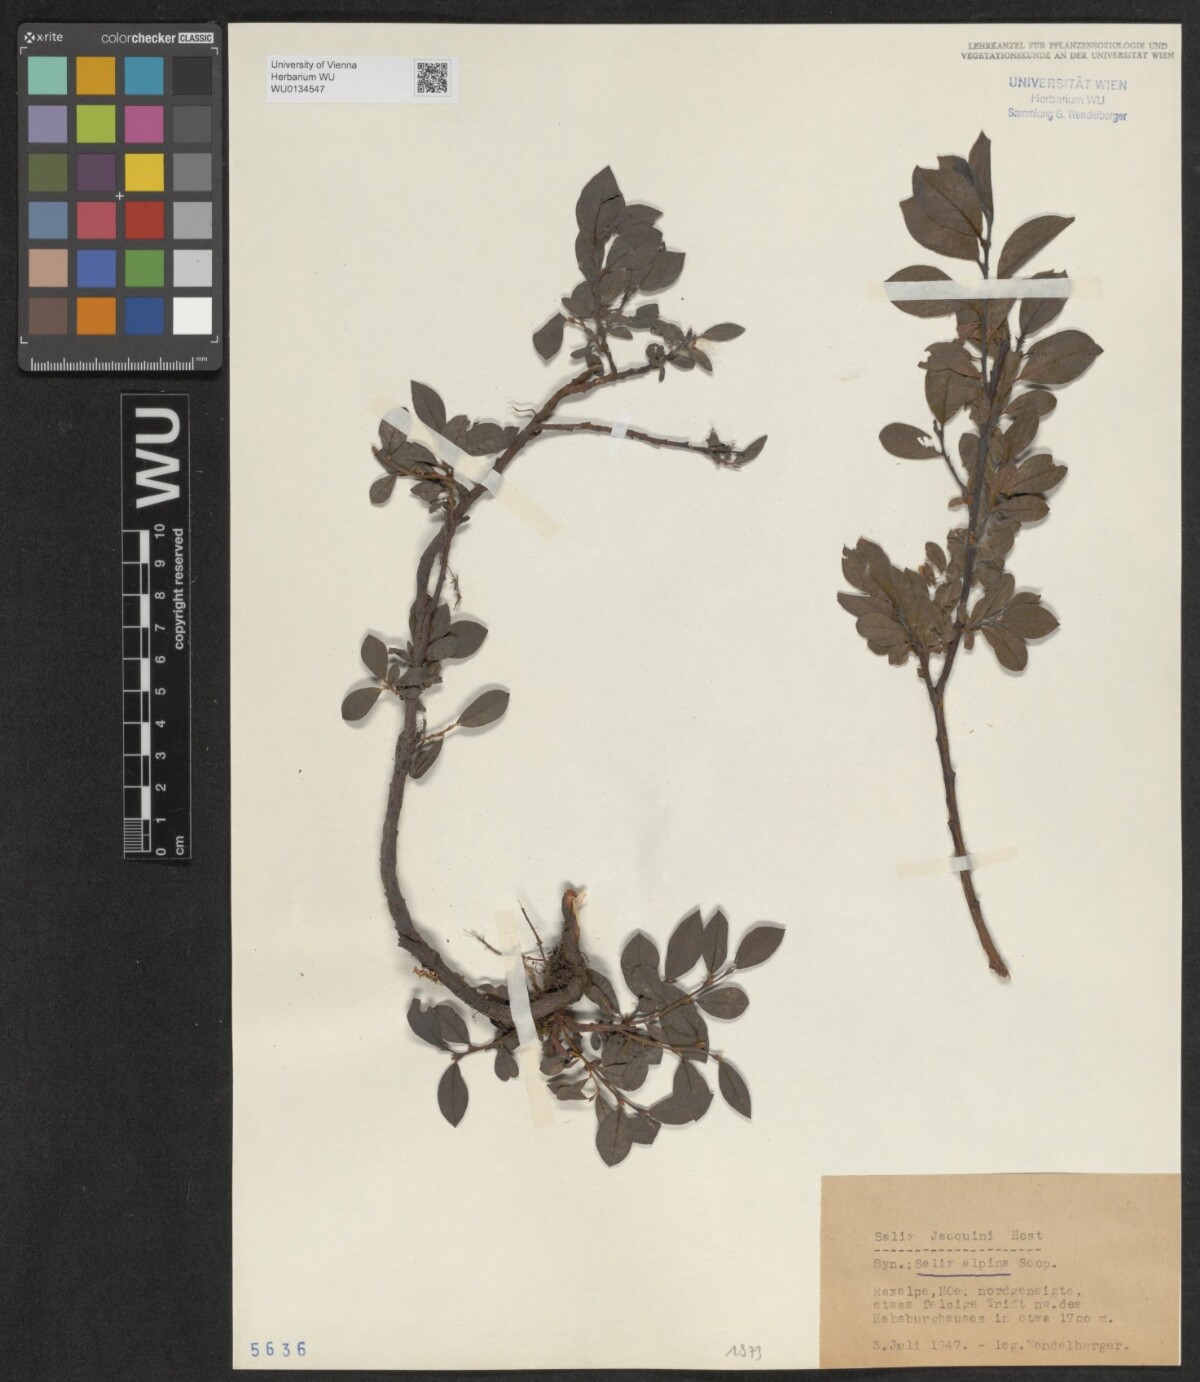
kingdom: Plantae
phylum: Tracheophyta
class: Magnoliopsida
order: Malpighiales
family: Salicaceae
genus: Salix
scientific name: Salix alpina
